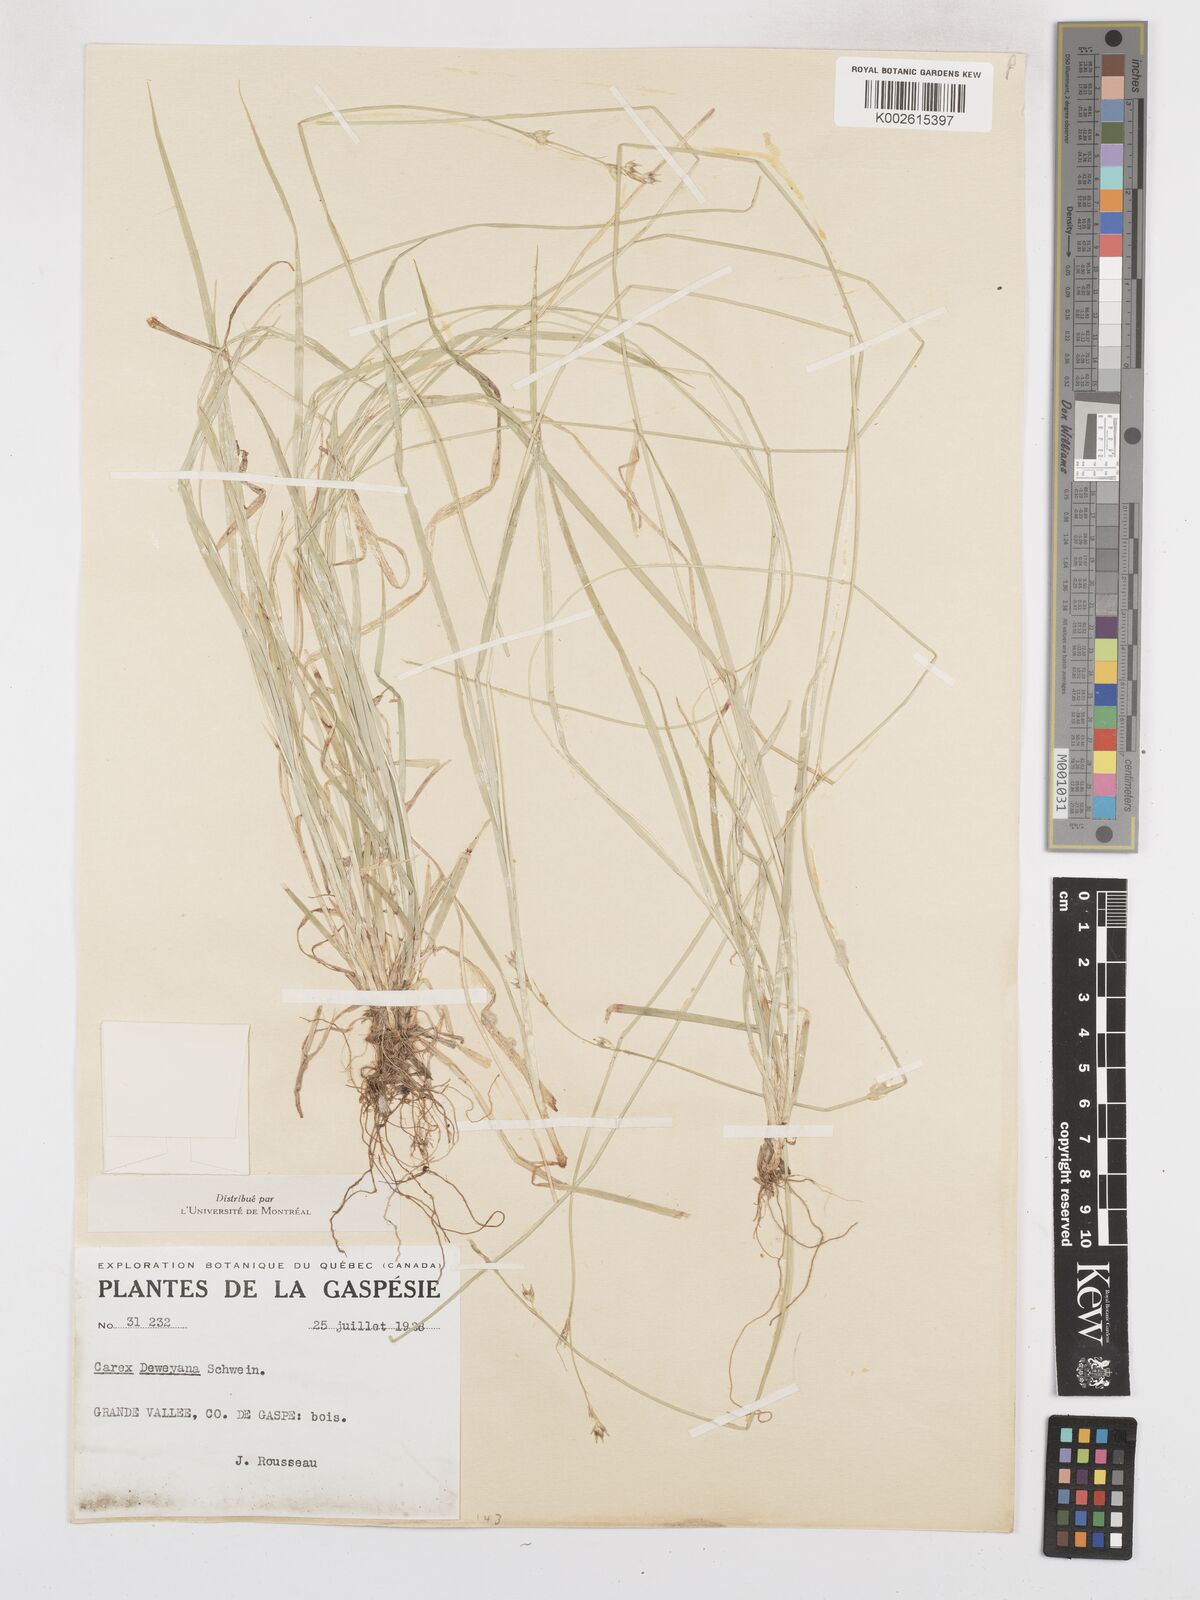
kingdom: Plantae
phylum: Tracheophyta
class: Liliopsida
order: Poales
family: Cyperaceae
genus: Carex
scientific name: Carex bolanderi
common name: Bolander's sedge
